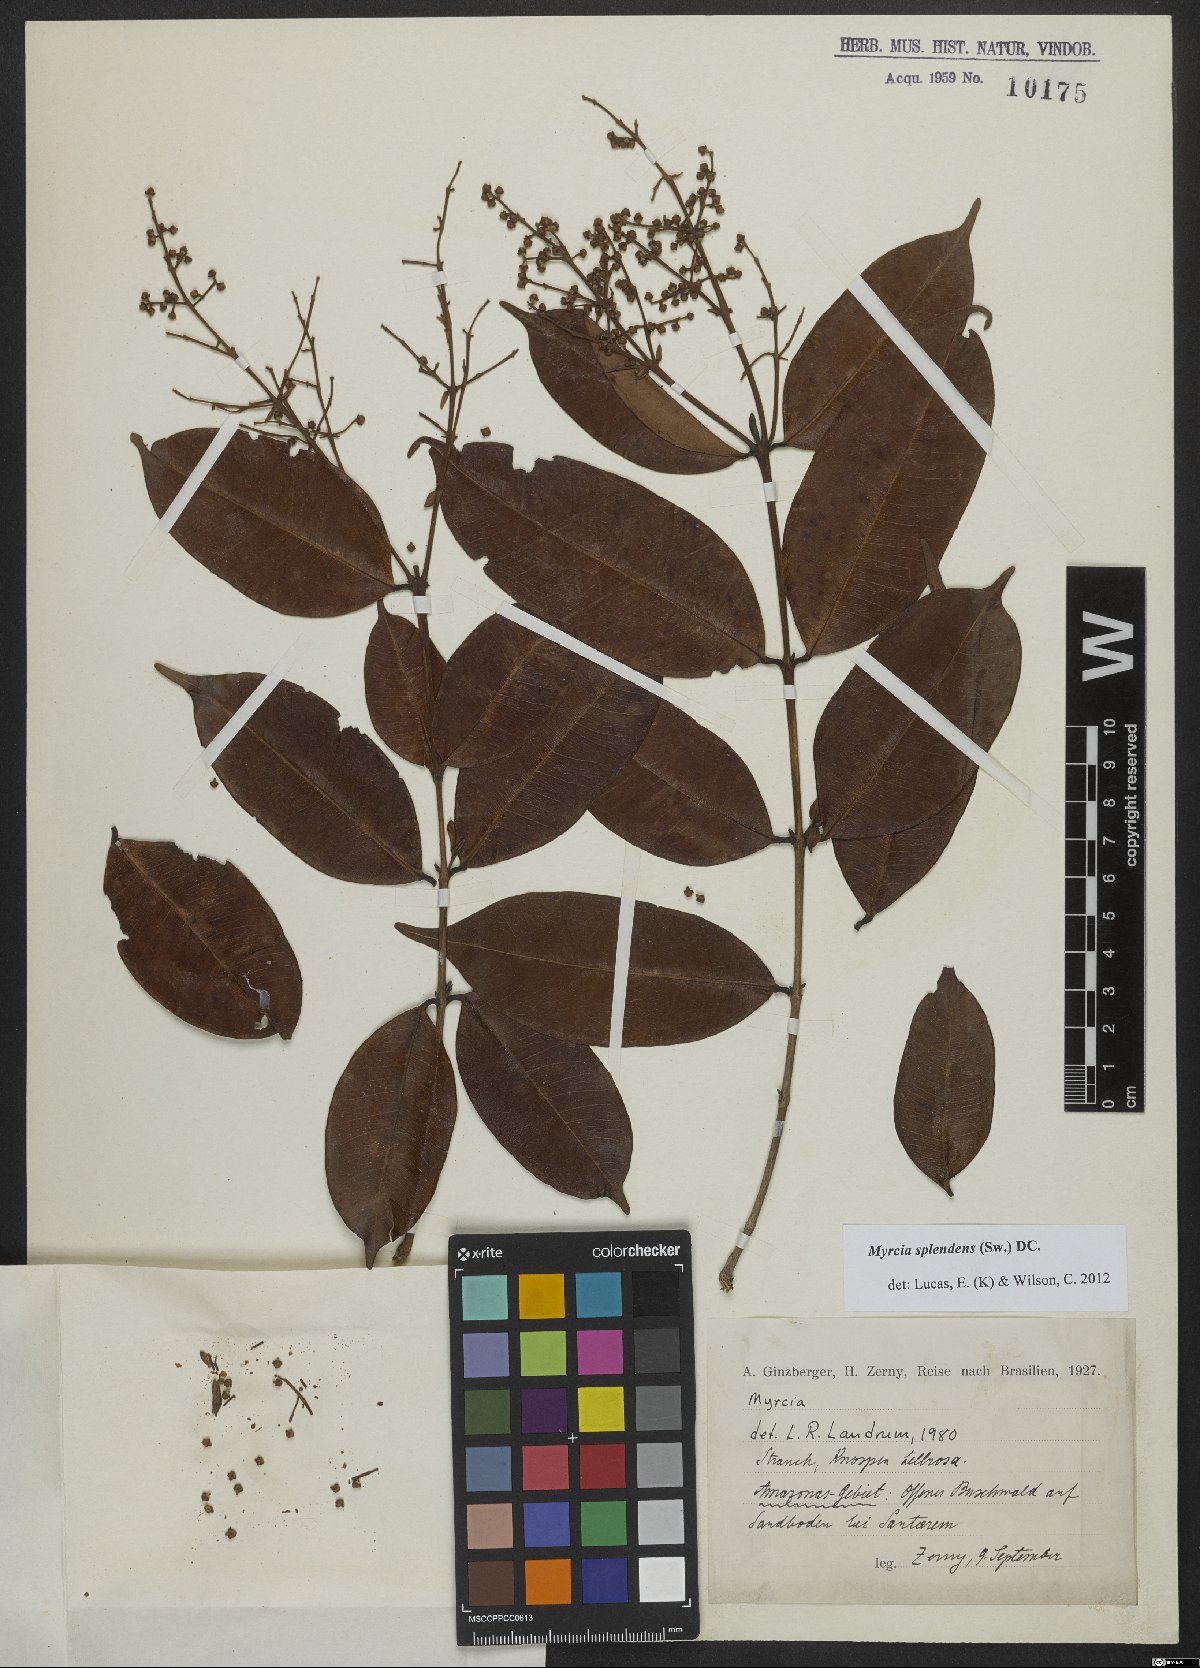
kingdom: Plantae
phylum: Tracheophyta
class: Magnoliopsida
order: Myrtales
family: Myrtaceae
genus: Myrcia
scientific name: Myrcia splendens
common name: Surinam cherry
